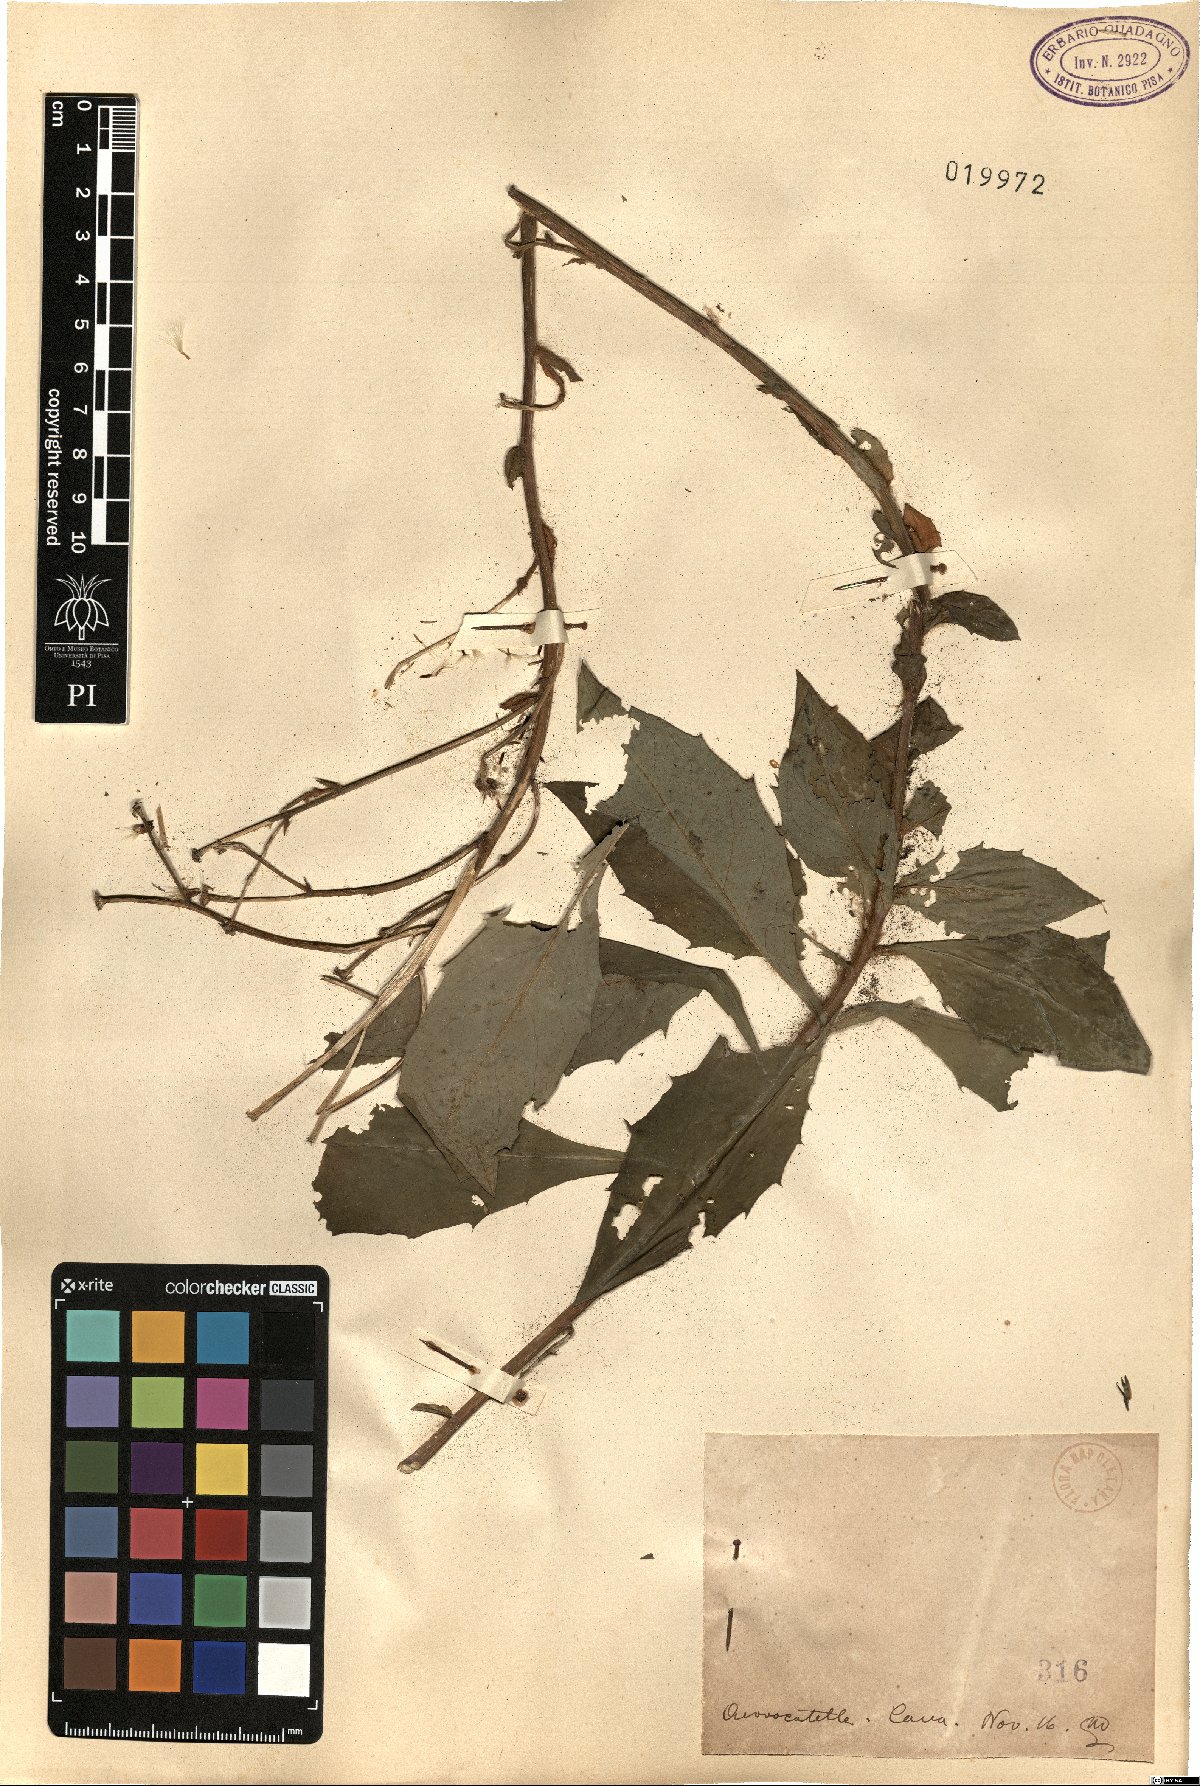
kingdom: Plantae
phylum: Tracheophyta
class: Magnoliopsida
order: Asterales
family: Asteraceae
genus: Hieracium
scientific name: Hieracium
